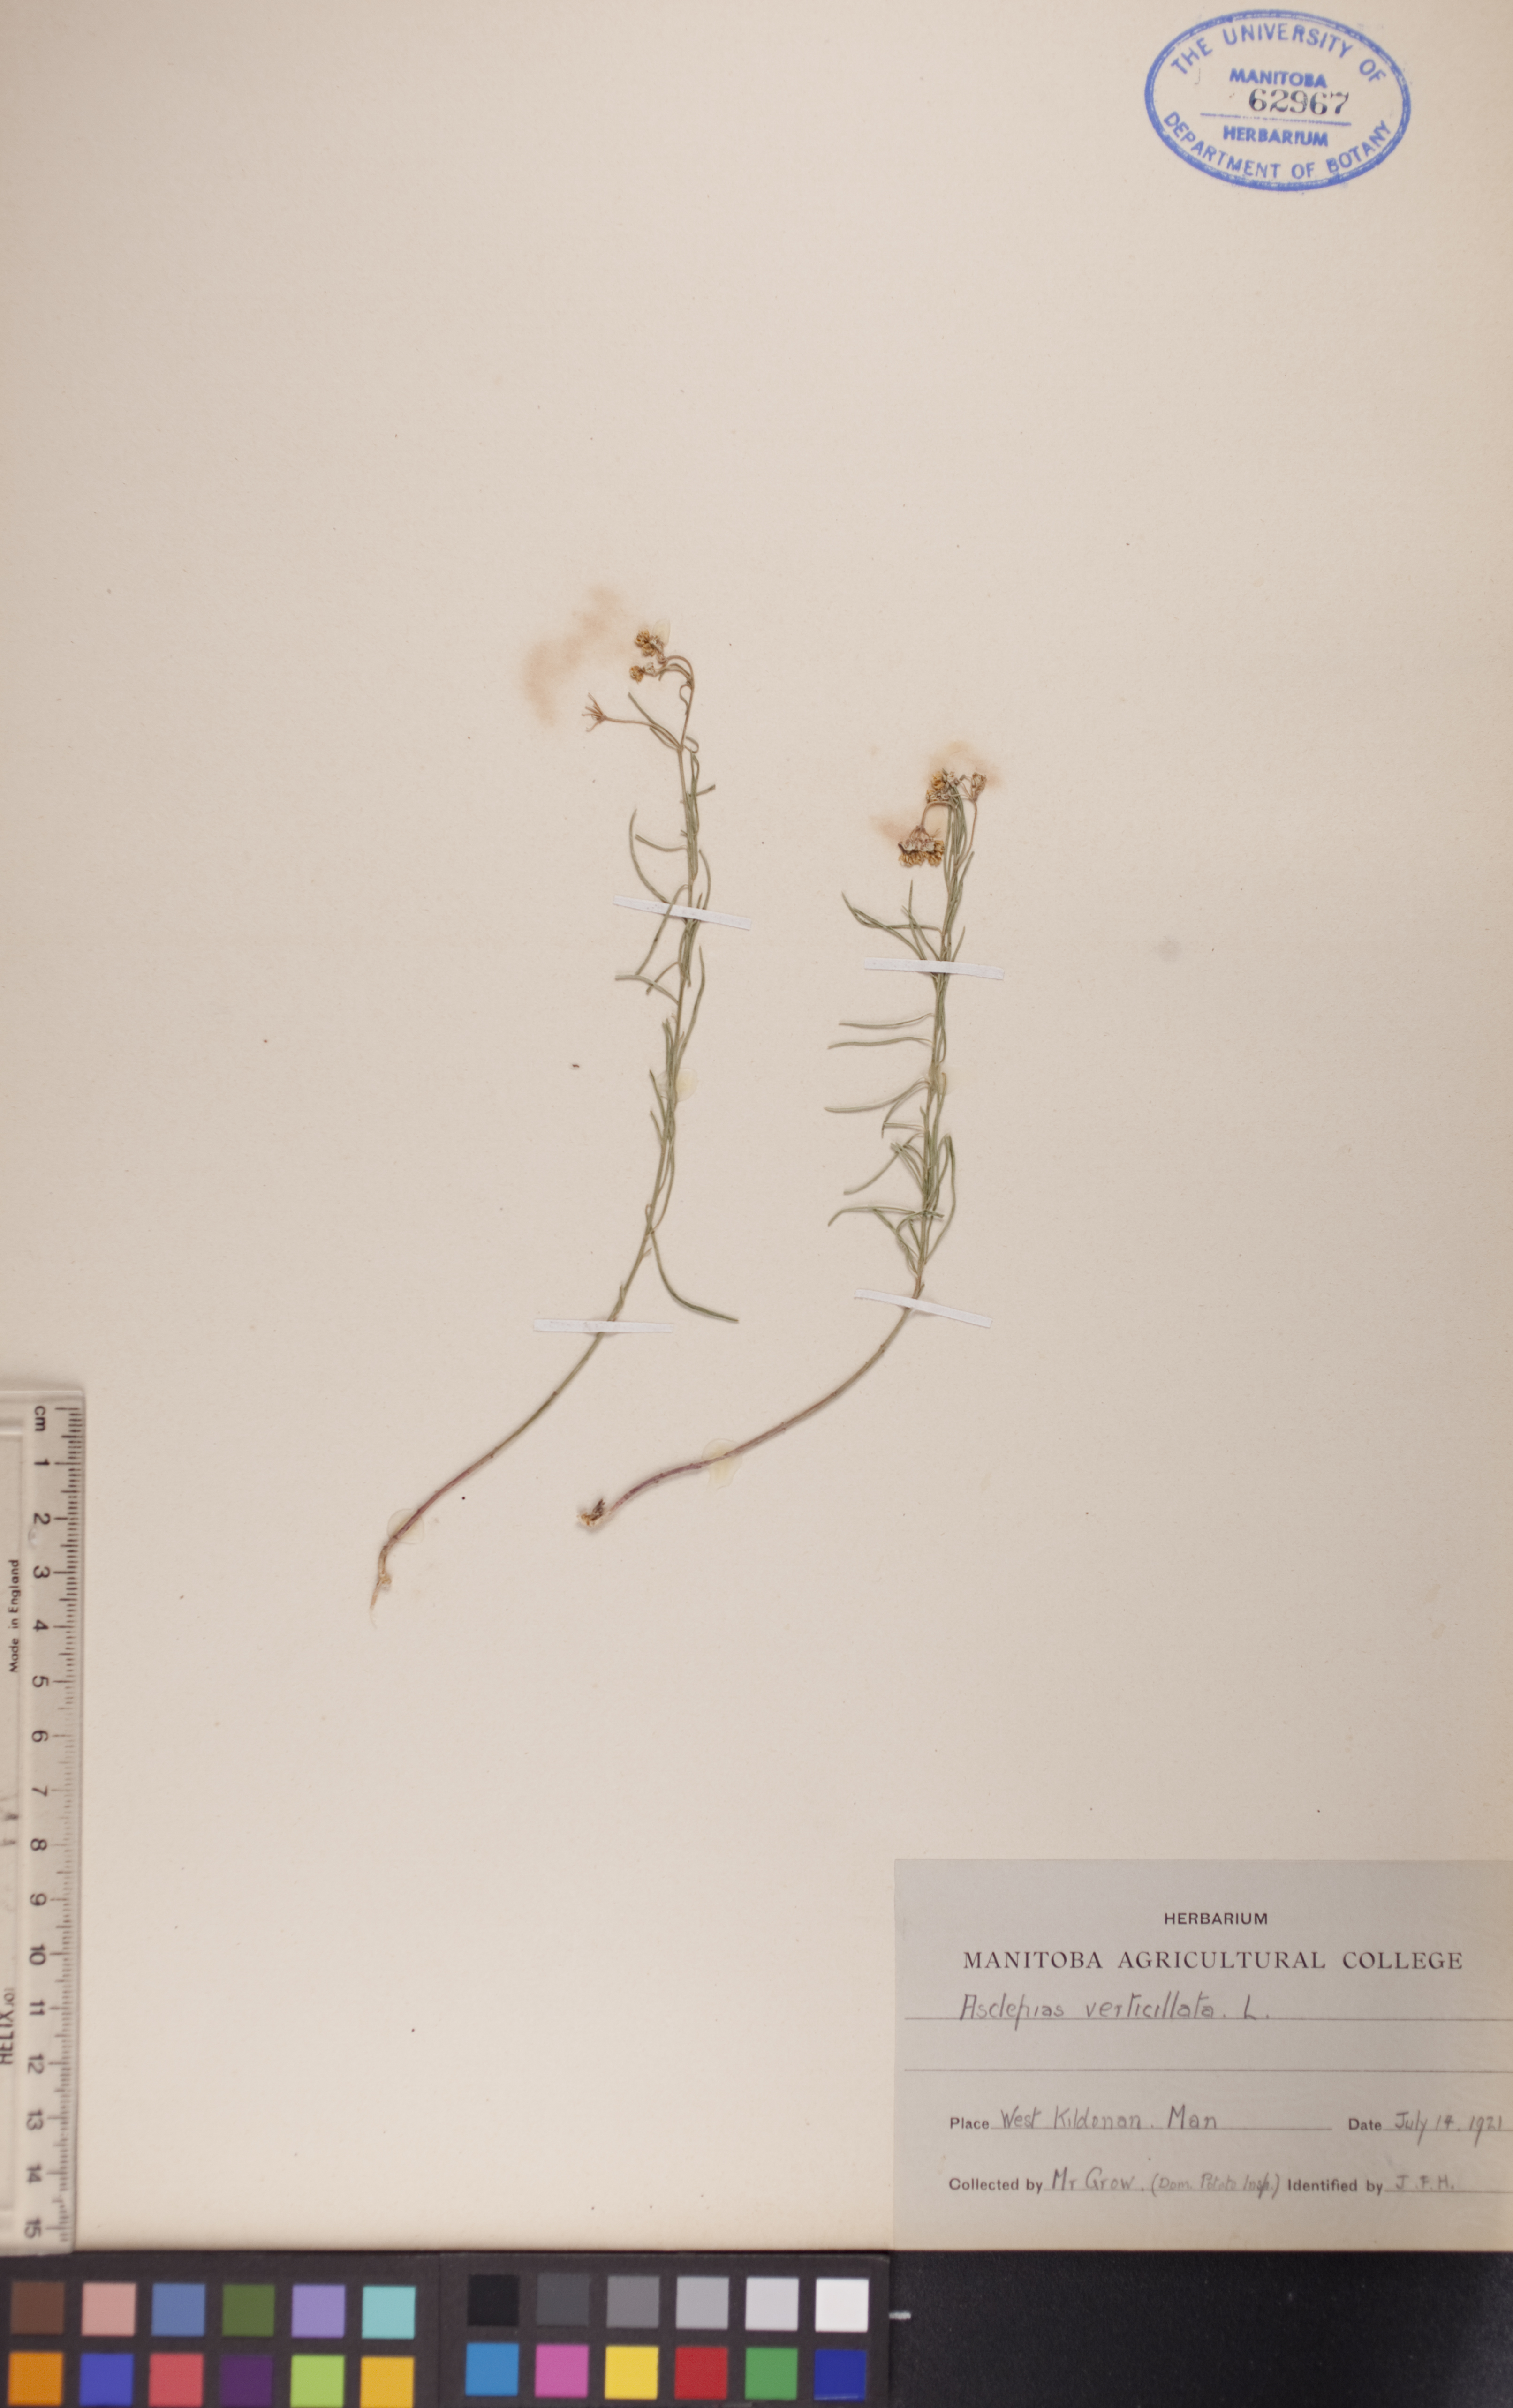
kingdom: Plantae
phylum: Tracheophyta
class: Magnoliopsida
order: Gentianales
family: Apocynaceae
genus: Asclepias
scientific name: Asclepias verticillata
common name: Eastern whorled milkweed
